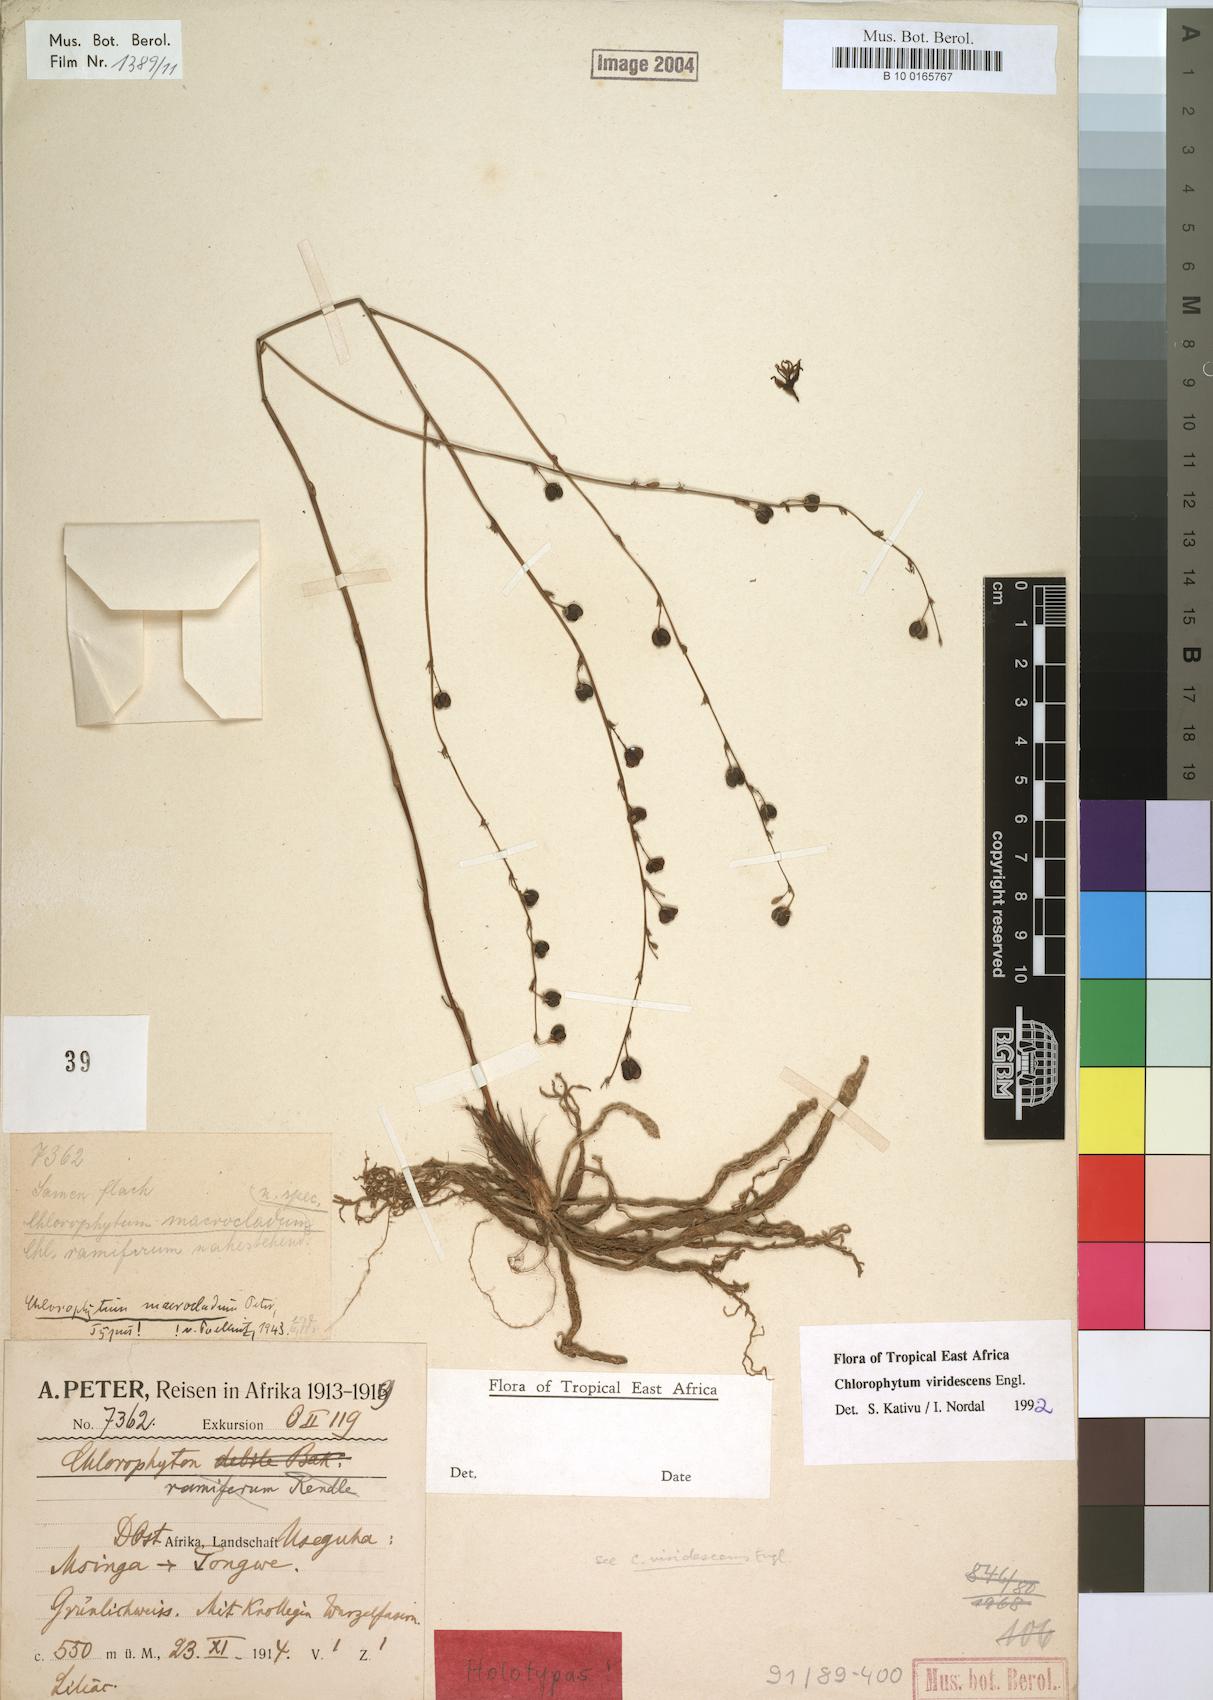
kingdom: Plantae
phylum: Tracheophyta
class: Liliopsida
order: Asparagales
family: Asparagaceae
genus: Chlorophytum
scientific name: Chlorophytum viridescens
